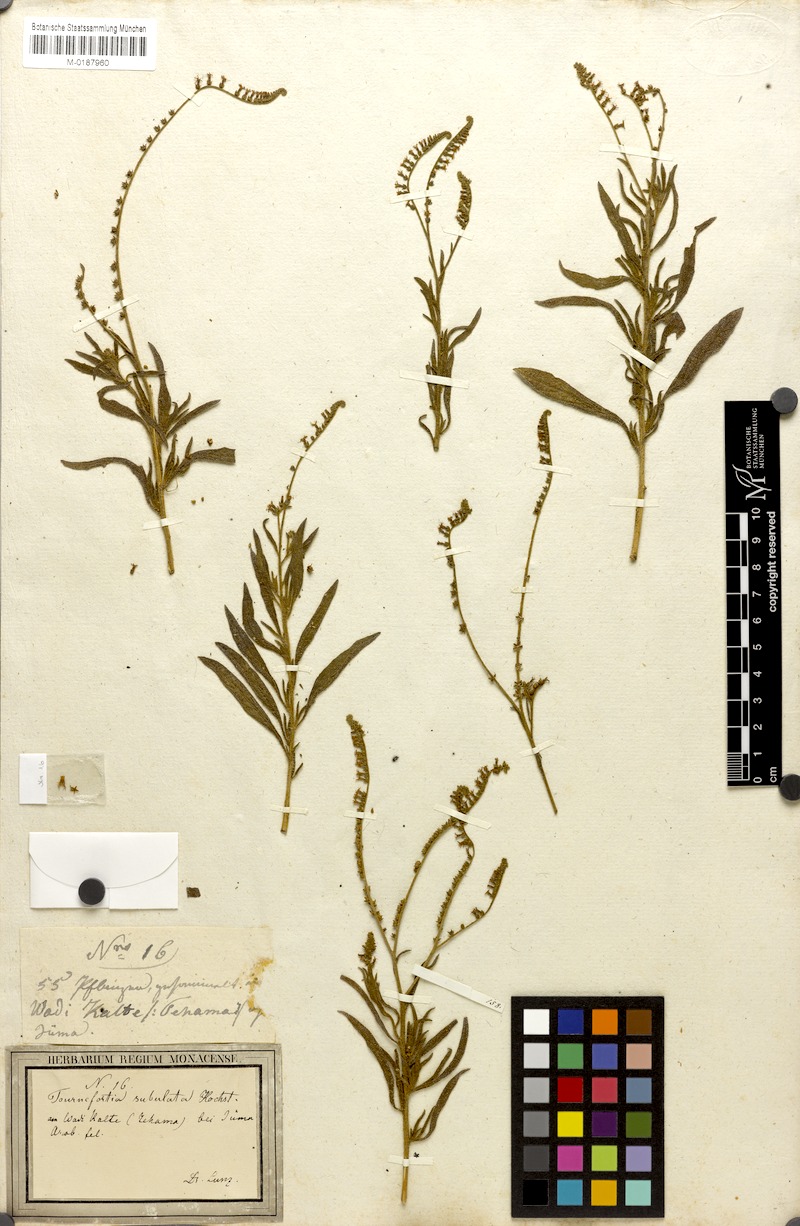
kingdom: Plantae
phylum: Tracheophyta
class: Magnoliopsida
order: Boraginales
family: Heliotropiaceae
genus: Heliotropium
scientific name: Heliotropium zeylanicum
